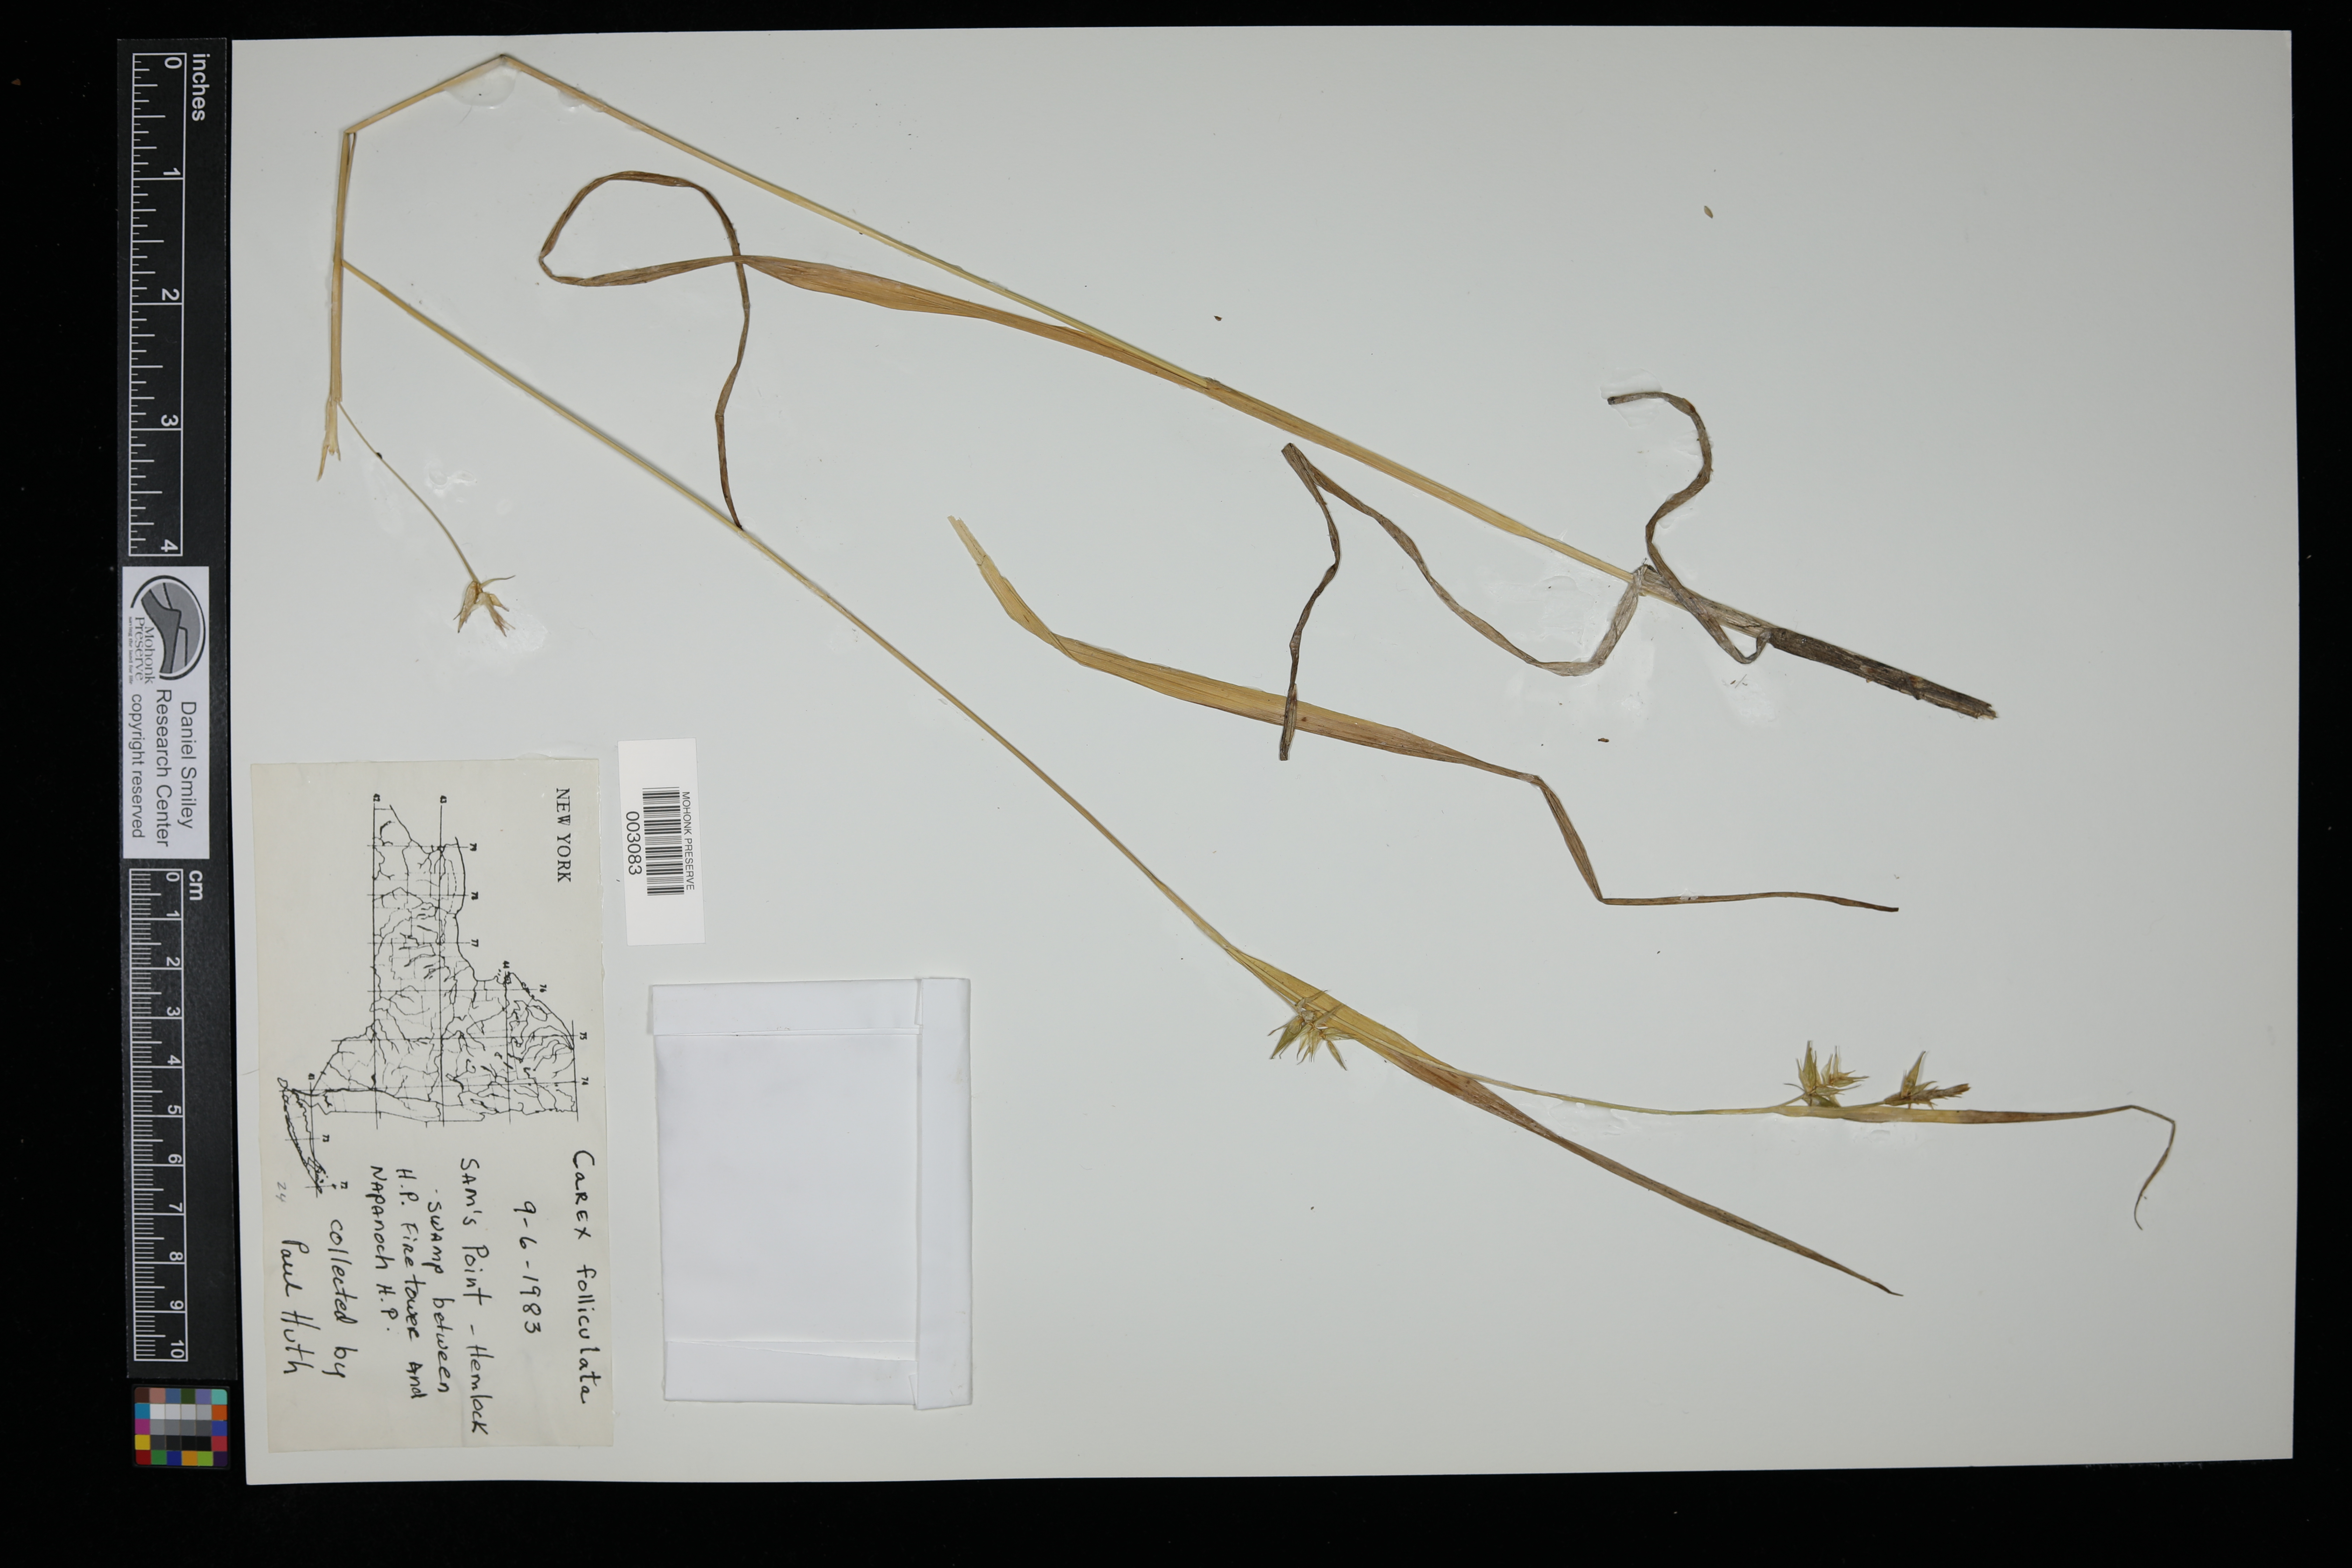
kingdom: Plantae
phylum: Tracheophyta
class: Liliopsida
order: Poales
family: Cyperaceae
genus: Carex
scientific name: Carex folliculata
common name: Northern long sedge
